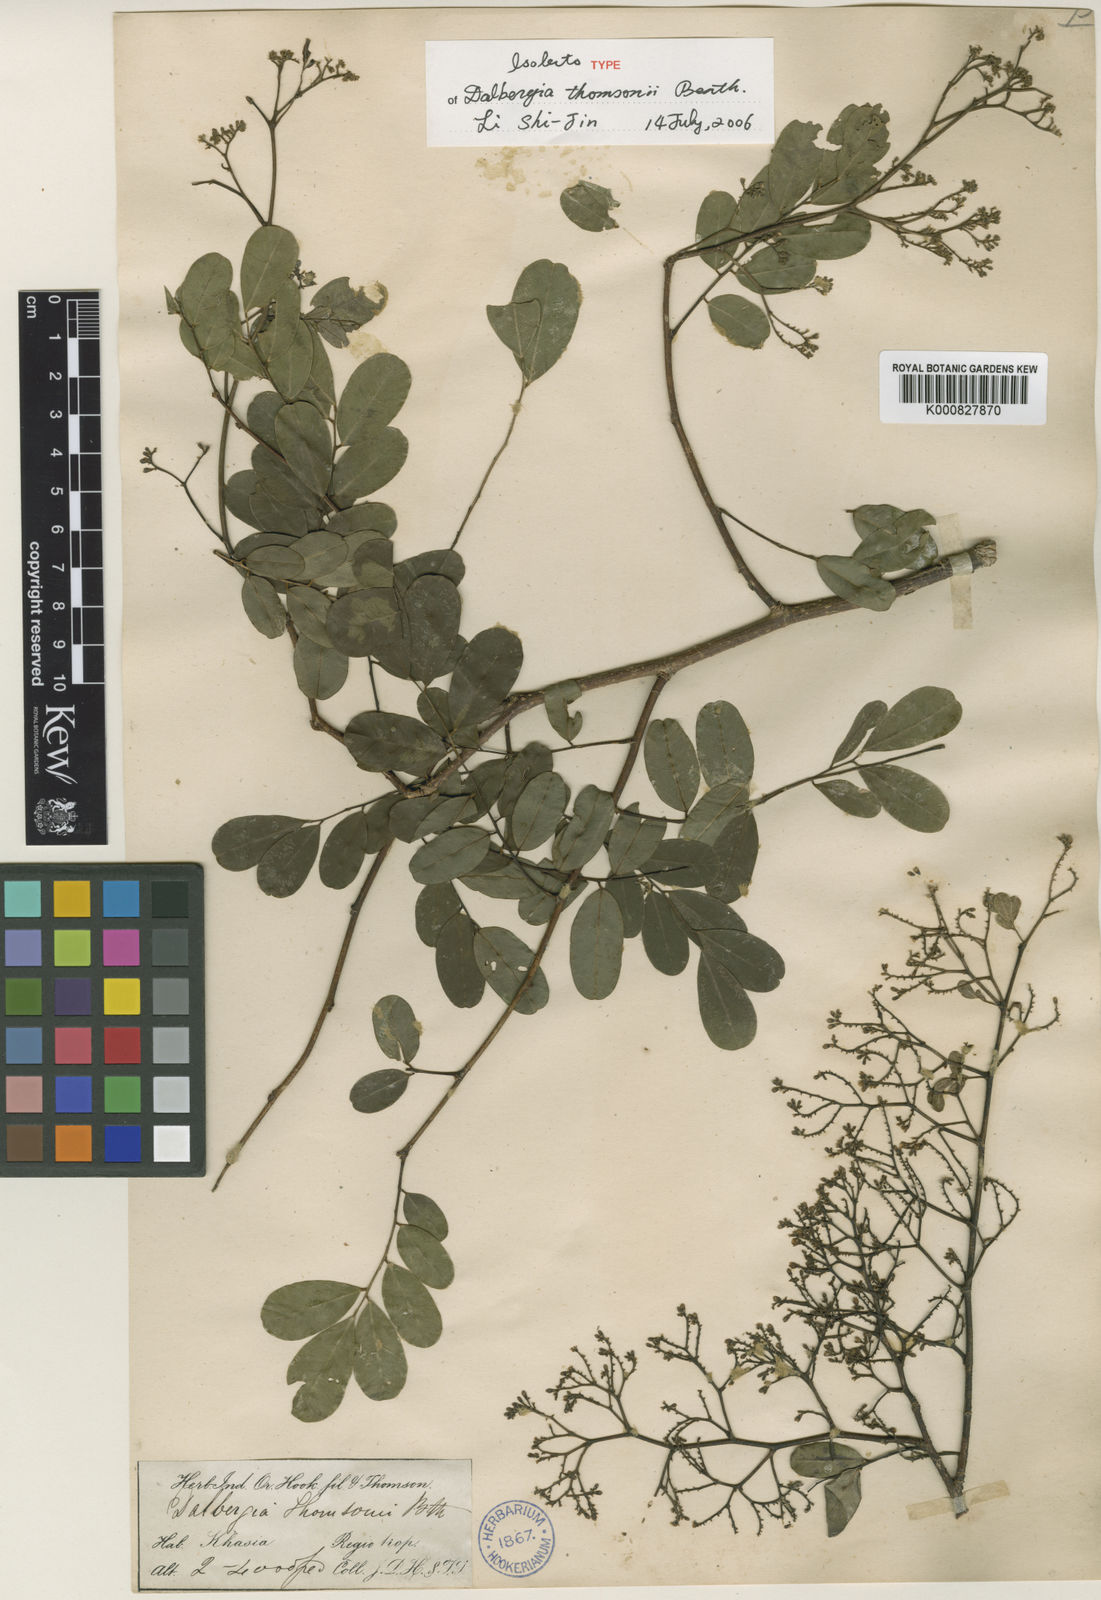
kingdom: Plantae
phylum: Tracheophyta
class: Magnoliopsida
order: Fabales
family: Fabaceae
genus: Dalbergia
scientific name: Dalbergia thomsonii
